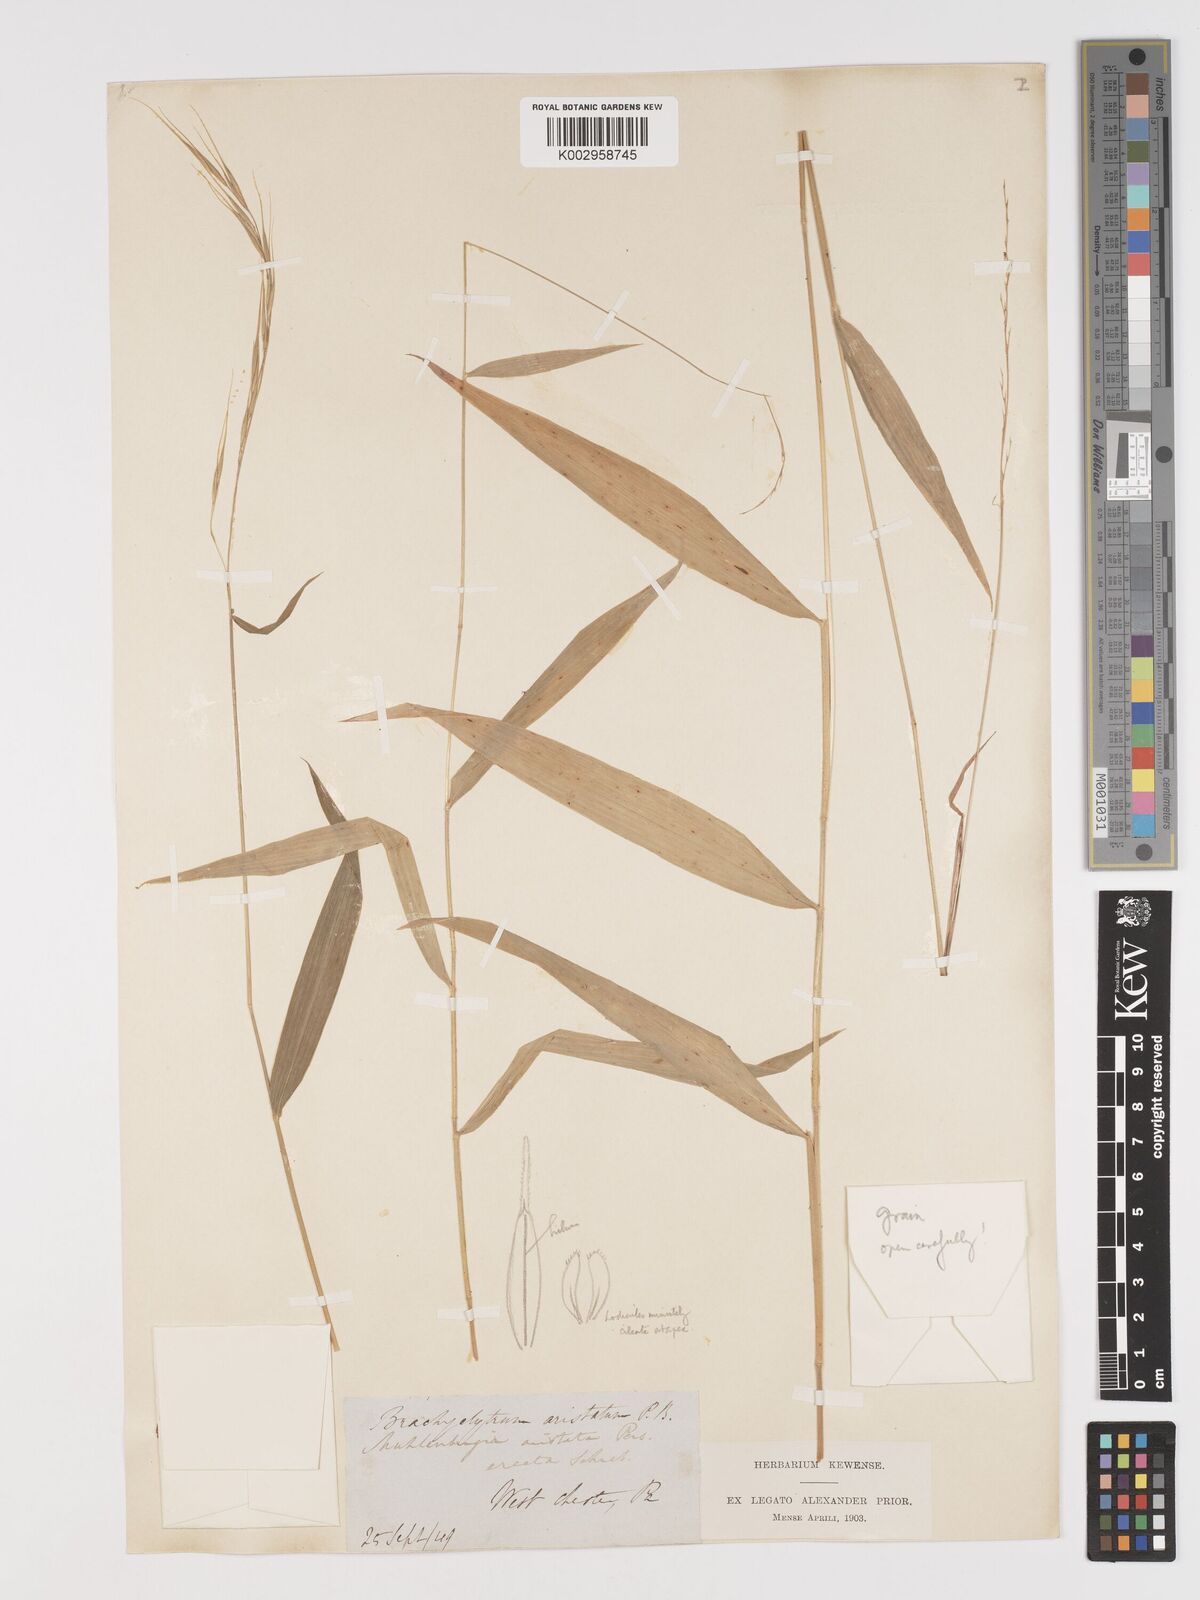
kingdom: Plantae
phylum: Tracheophyta
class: Liliopsida
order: Poales
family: Poaceae
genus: Brachyelytrum
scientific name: Brachyelytrum erectum
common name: Bearded shorthusk
